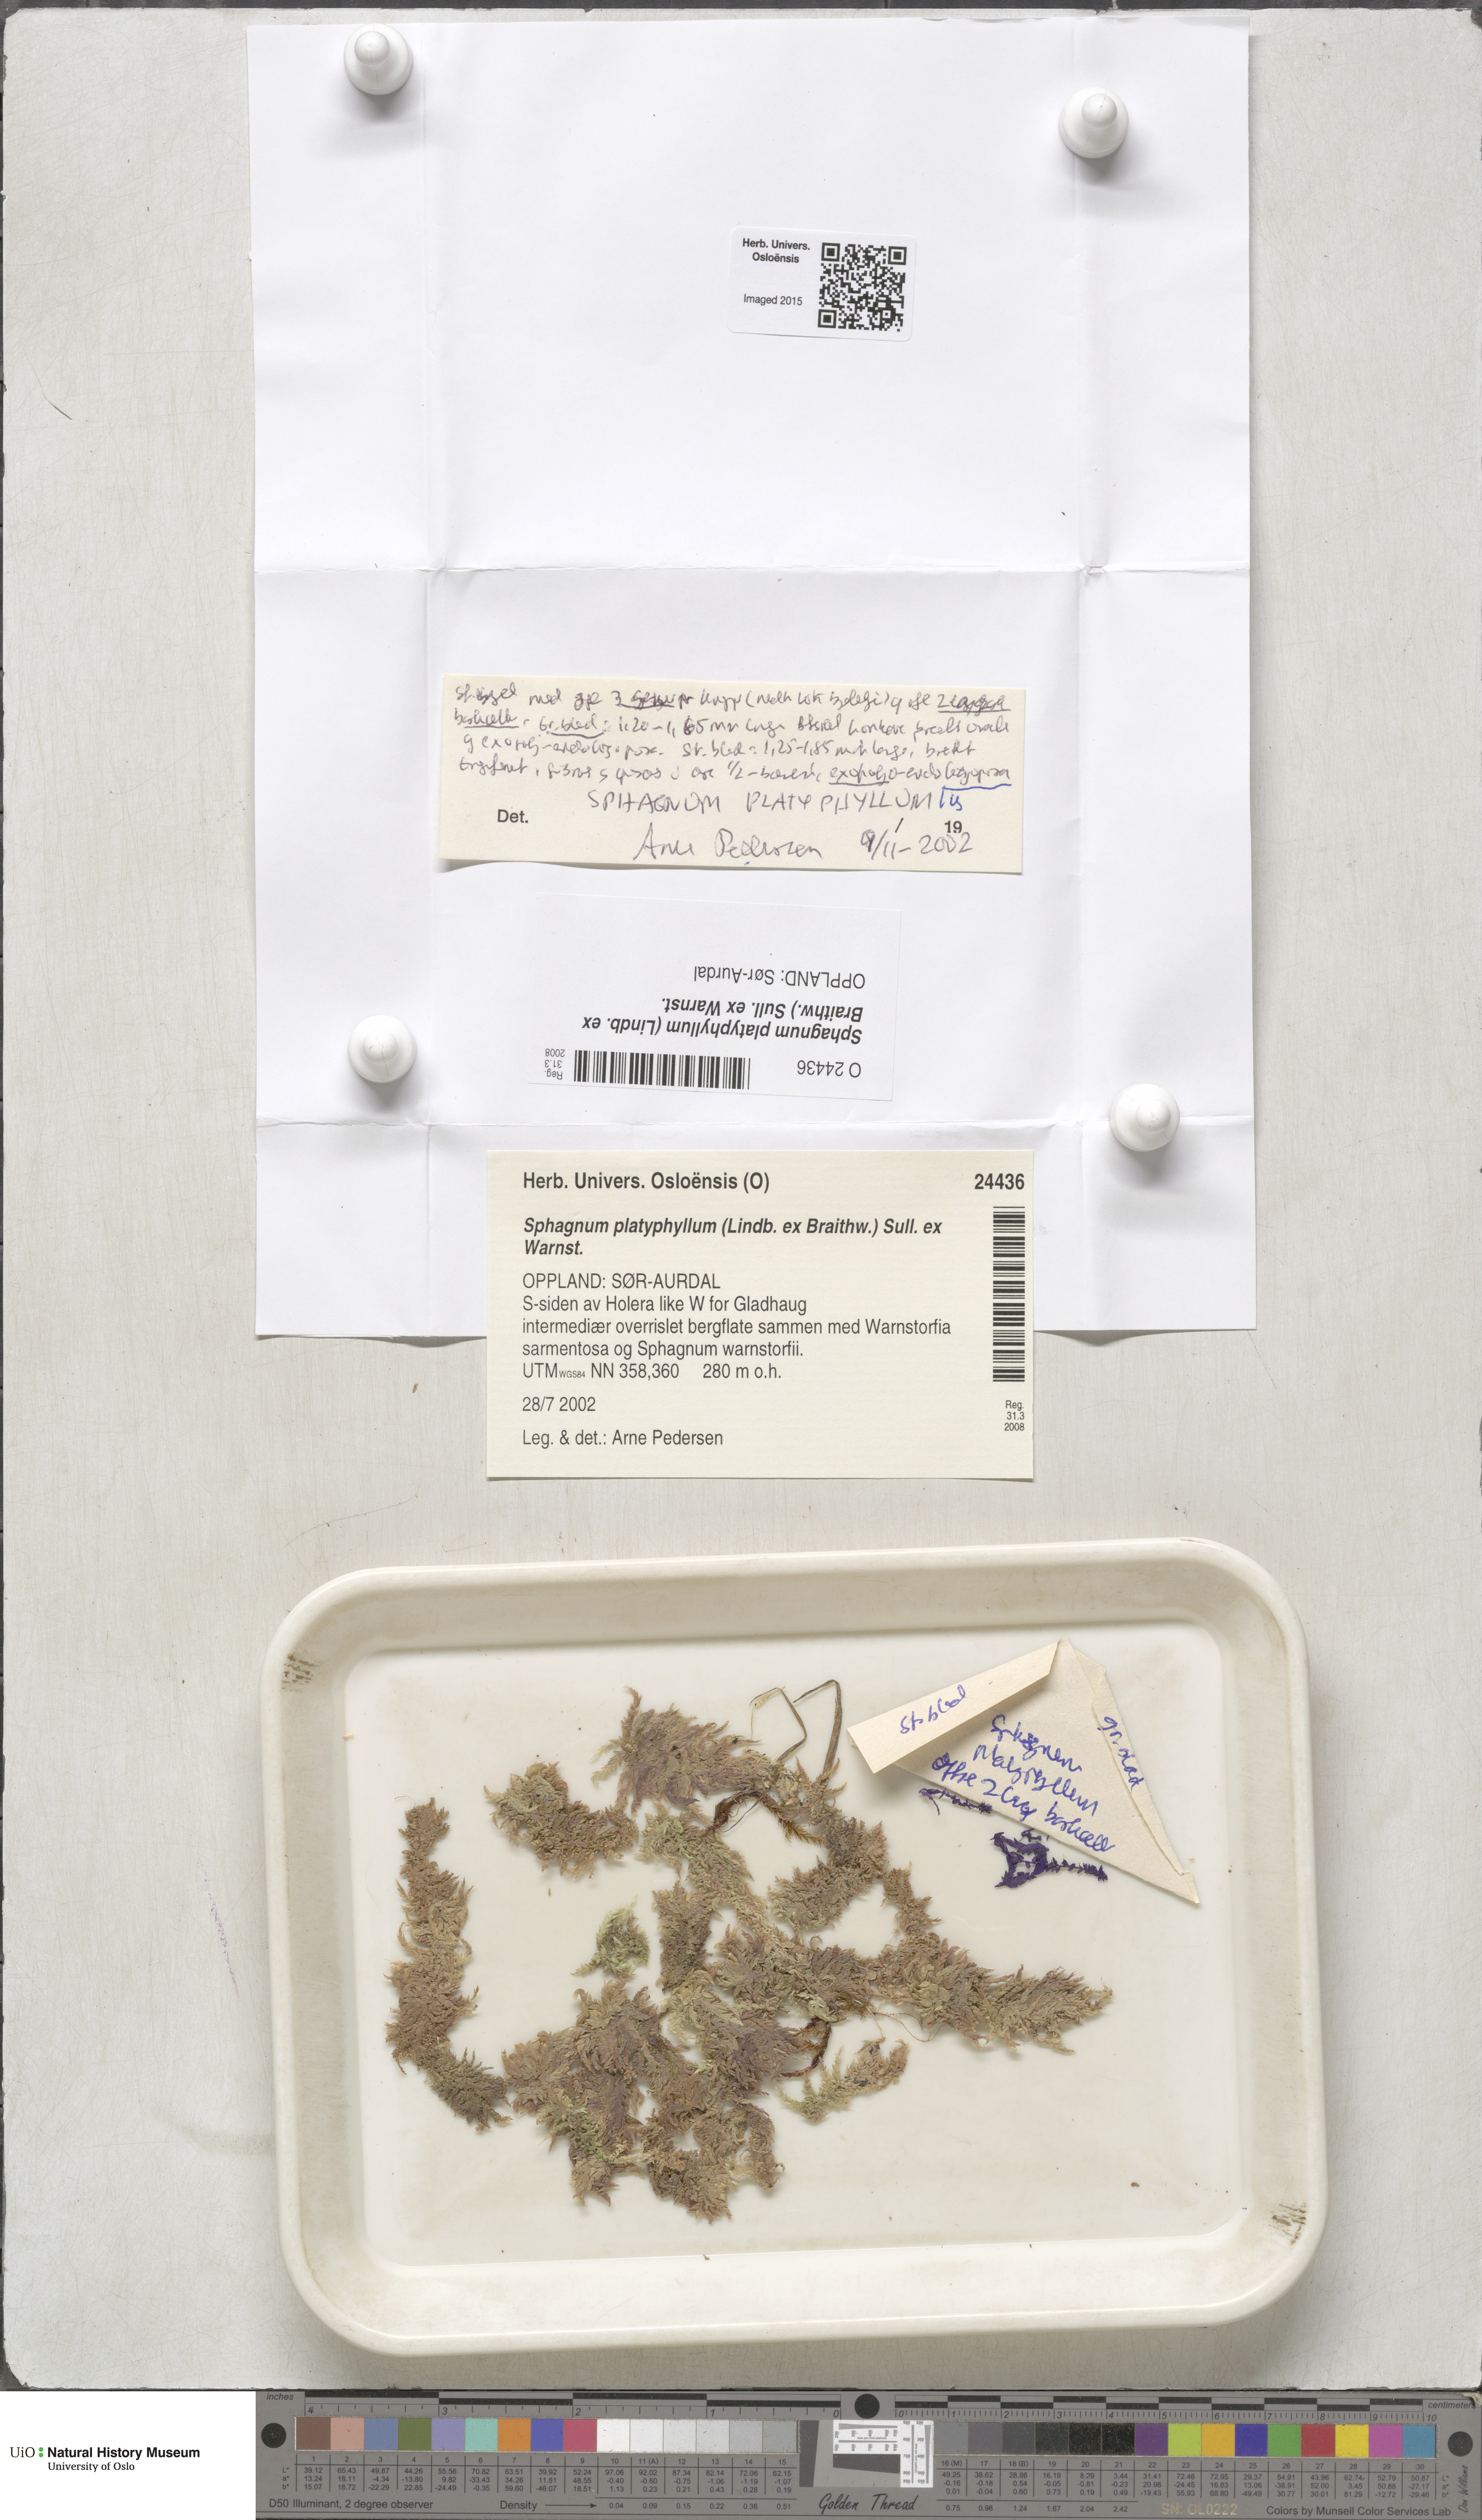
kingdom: Plantae
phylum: Bryophyta
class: Sphagnopsida
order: Sphagnales
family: Sphagnaceae
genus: Sphagnum
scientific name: Sphagnum platyphyllum
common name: Flat-leaved peat moss
